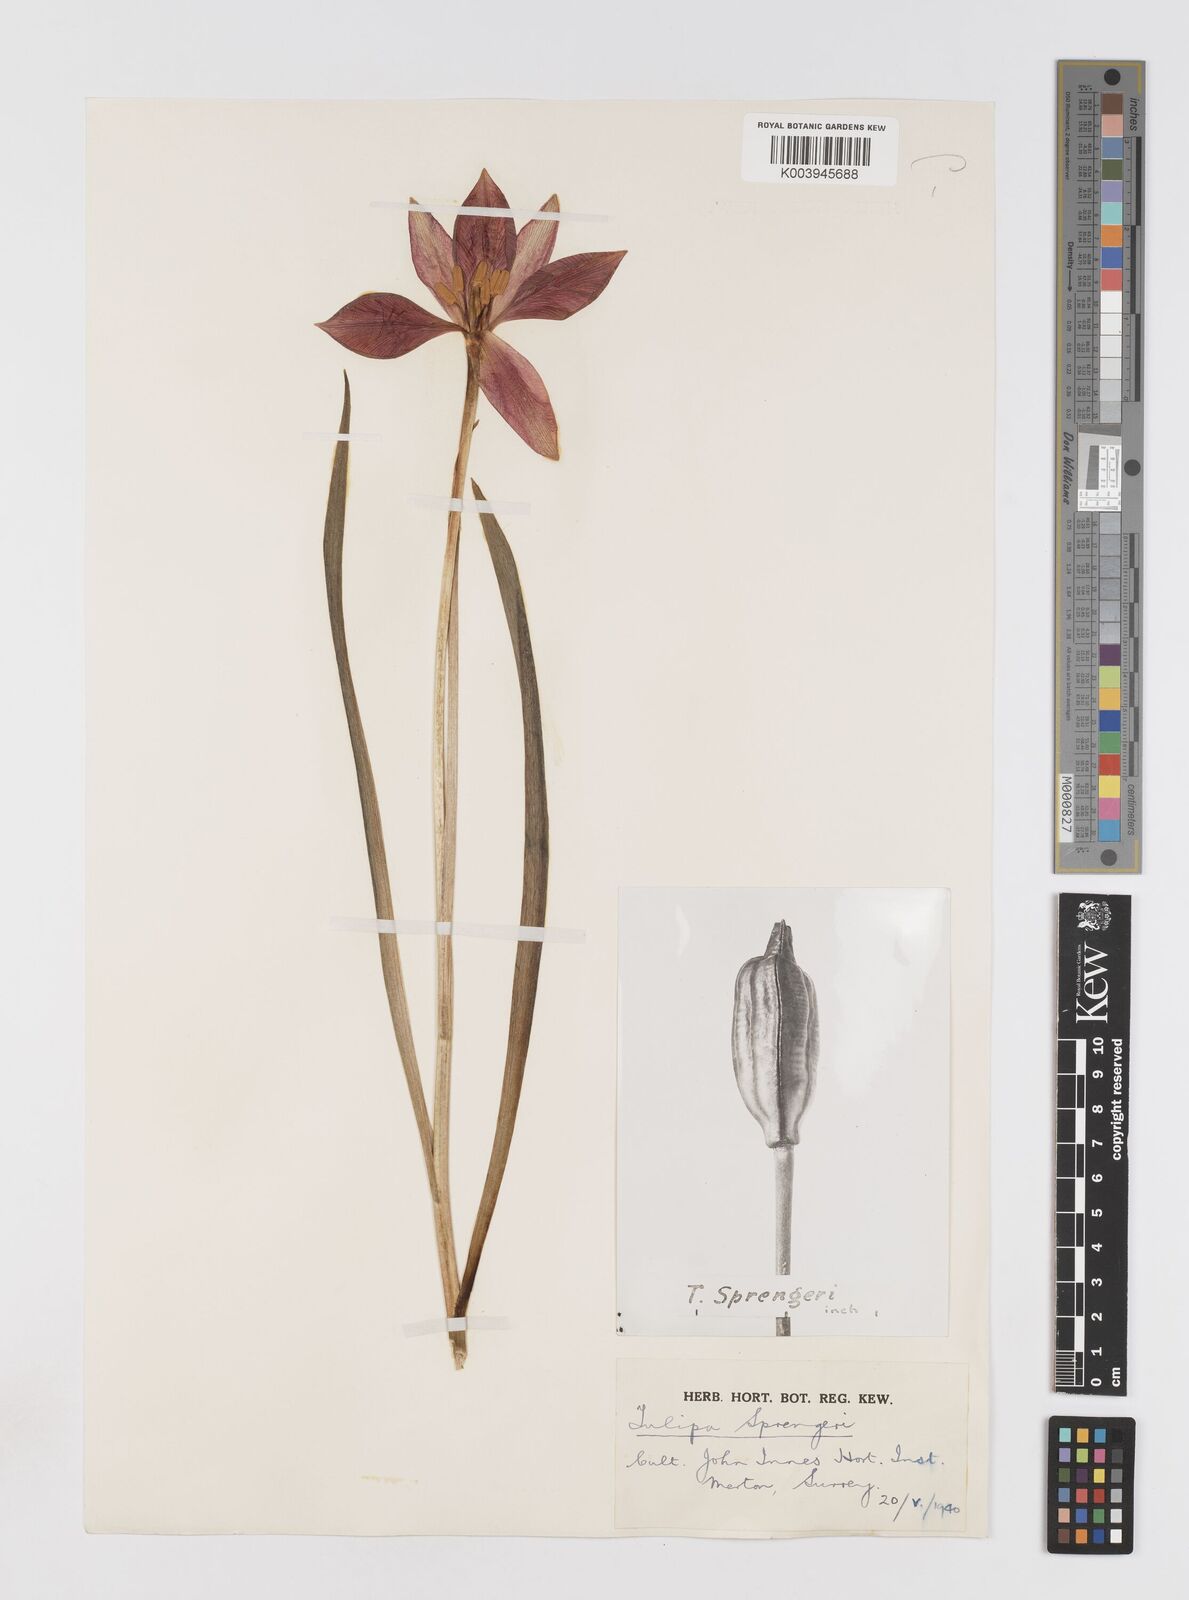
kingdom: Plantae
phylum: Tracheophyta
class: Liliopsida
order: Liliales
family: Liliaceae
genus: Tulipa
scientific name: Tulipa sprengeri
